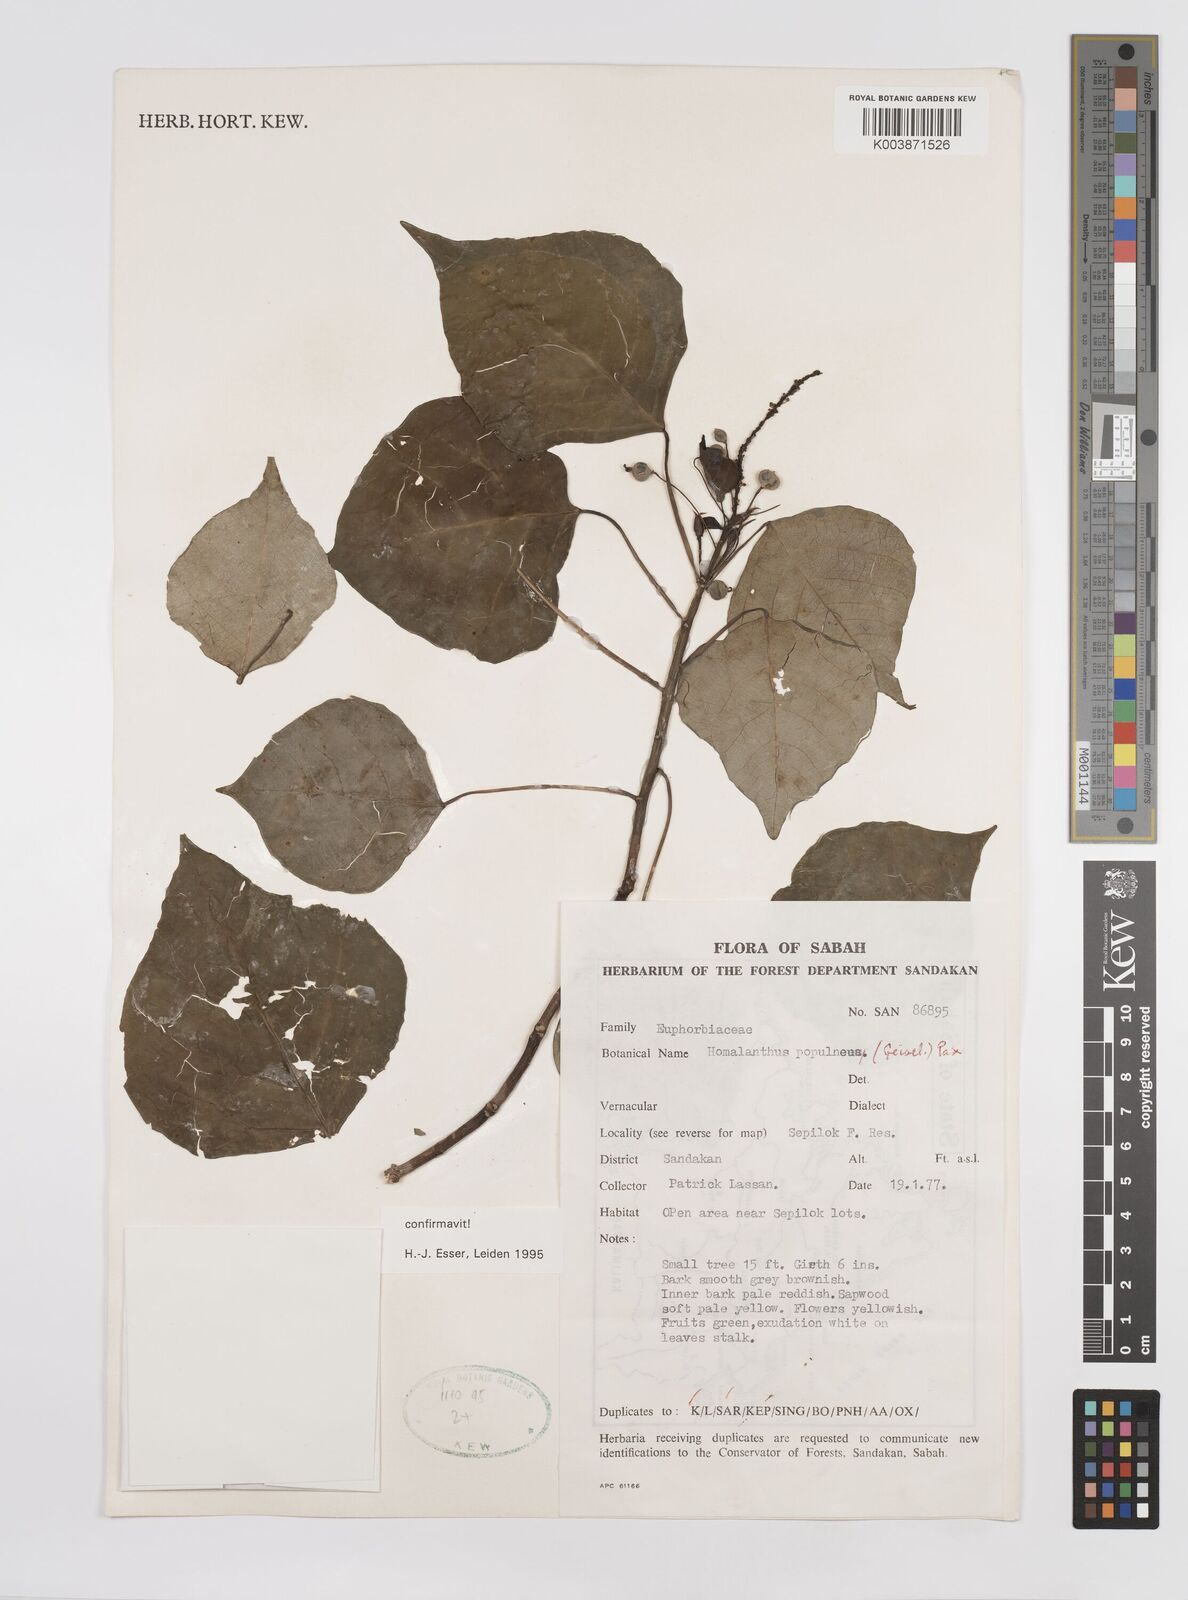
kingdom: Plantae
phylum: Tracheophyta
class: Magnoliopsida
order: Malpighiales
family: Euphorbiaceae
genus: Homalanthus
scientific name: Homalanthus populneus
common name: Spurge
